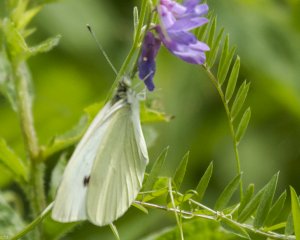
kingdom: Animalia
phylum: Arthropoda
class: Insecta
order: Lepidoptera
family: Pieridae
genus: Pieris
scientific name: Pieris rapae
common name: Cabbage White
